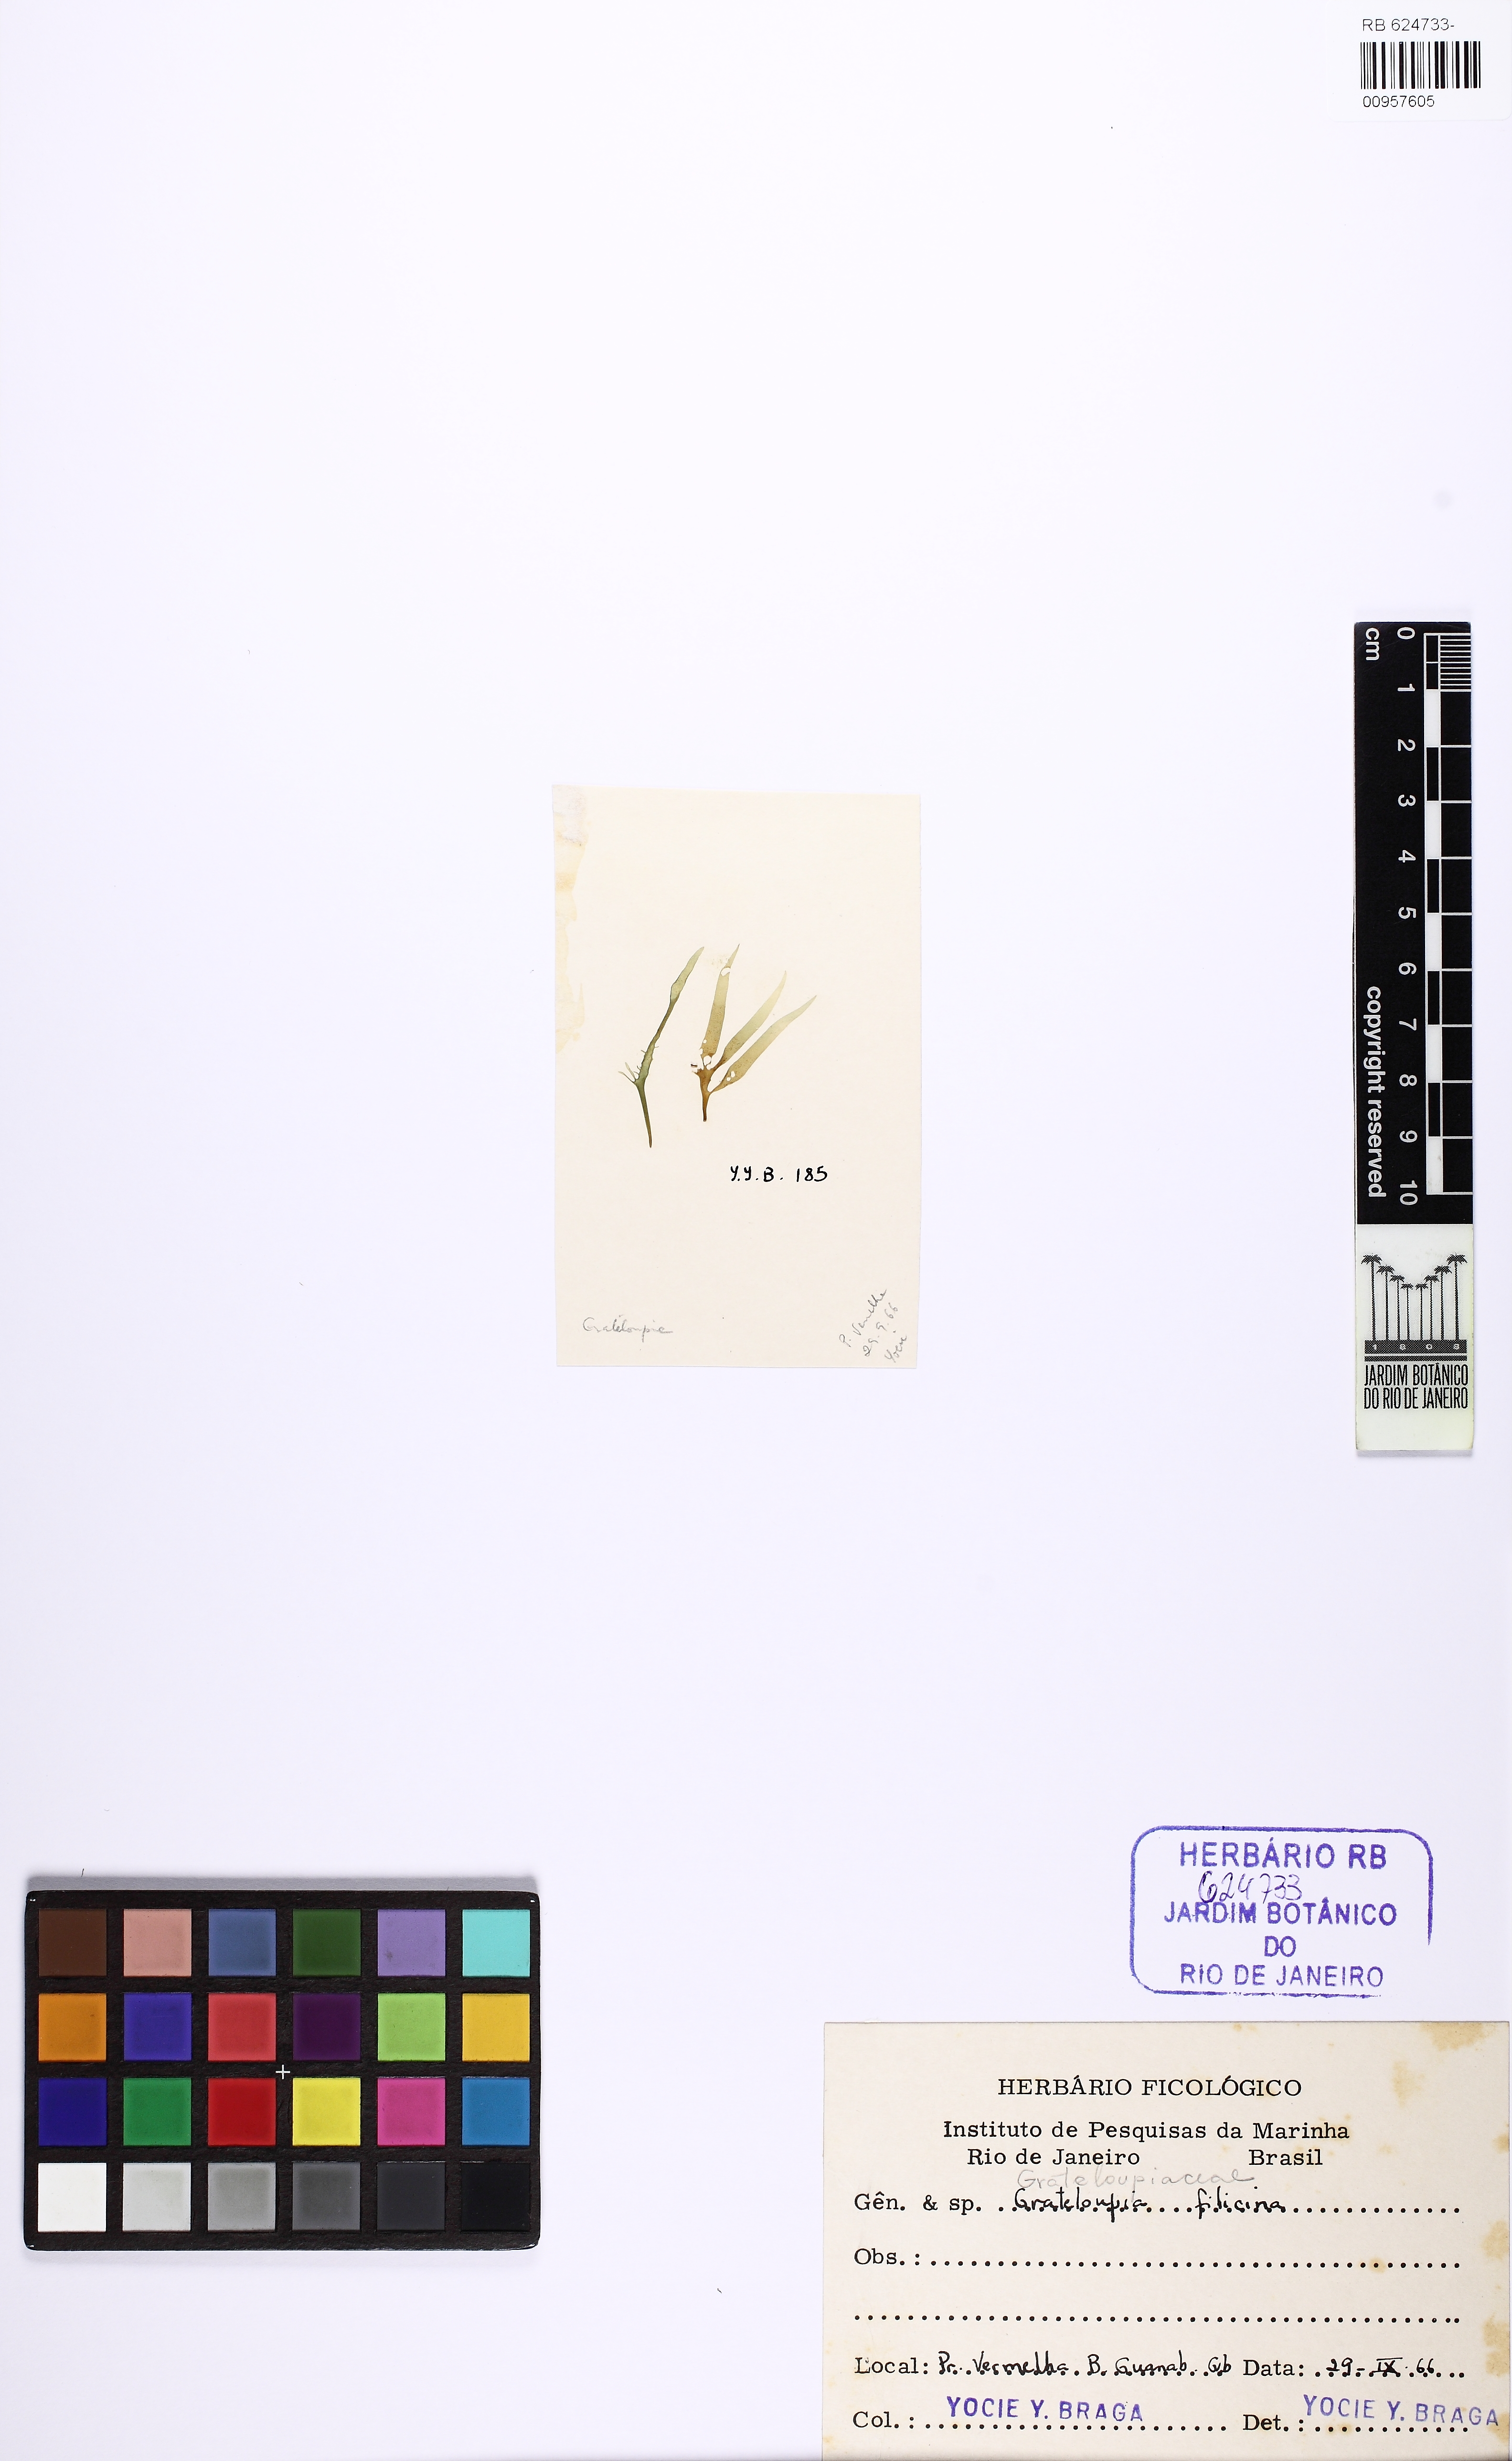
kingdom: Plantae
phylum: Rhodophyta
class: Florideophyceae
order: Halymeniales
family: Halymeniaceae
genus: Grateloupia
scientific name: Grateloupia filicina
